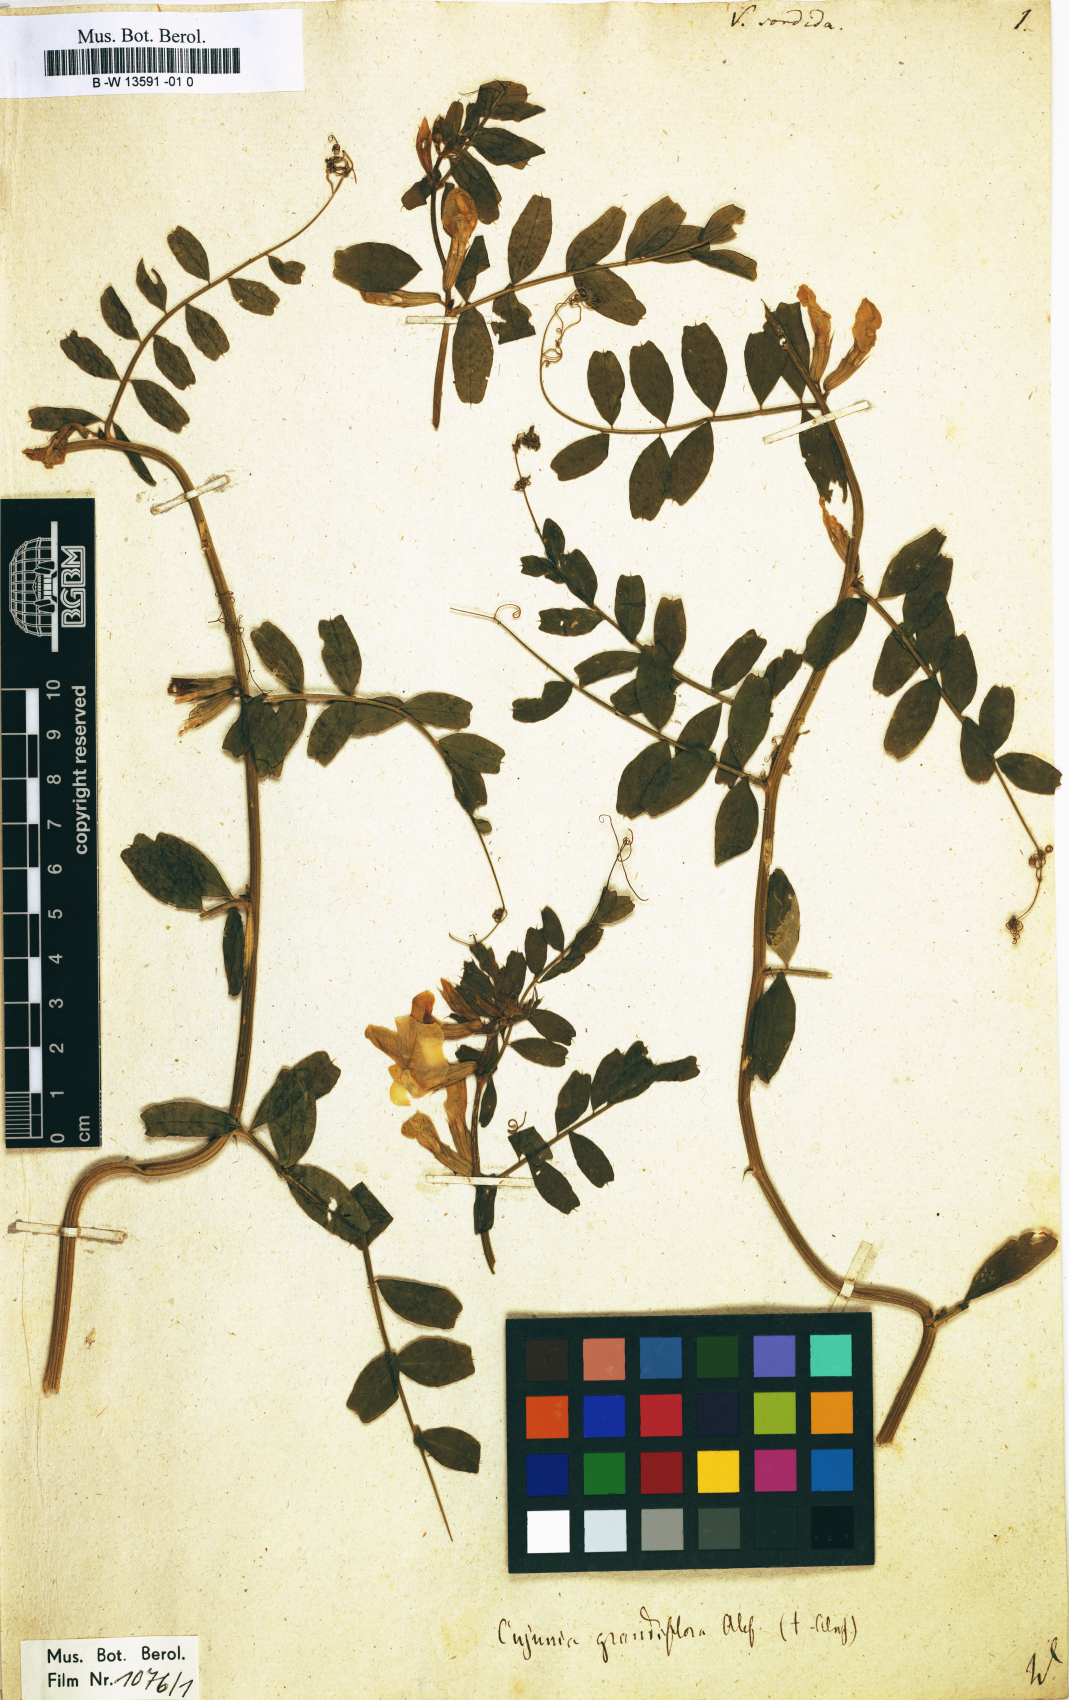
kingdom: Plantae
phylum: Tracheophyta
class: Magnoliopsida
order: Fabales
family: Fabaceae
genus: Vicia
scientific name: Vicia
